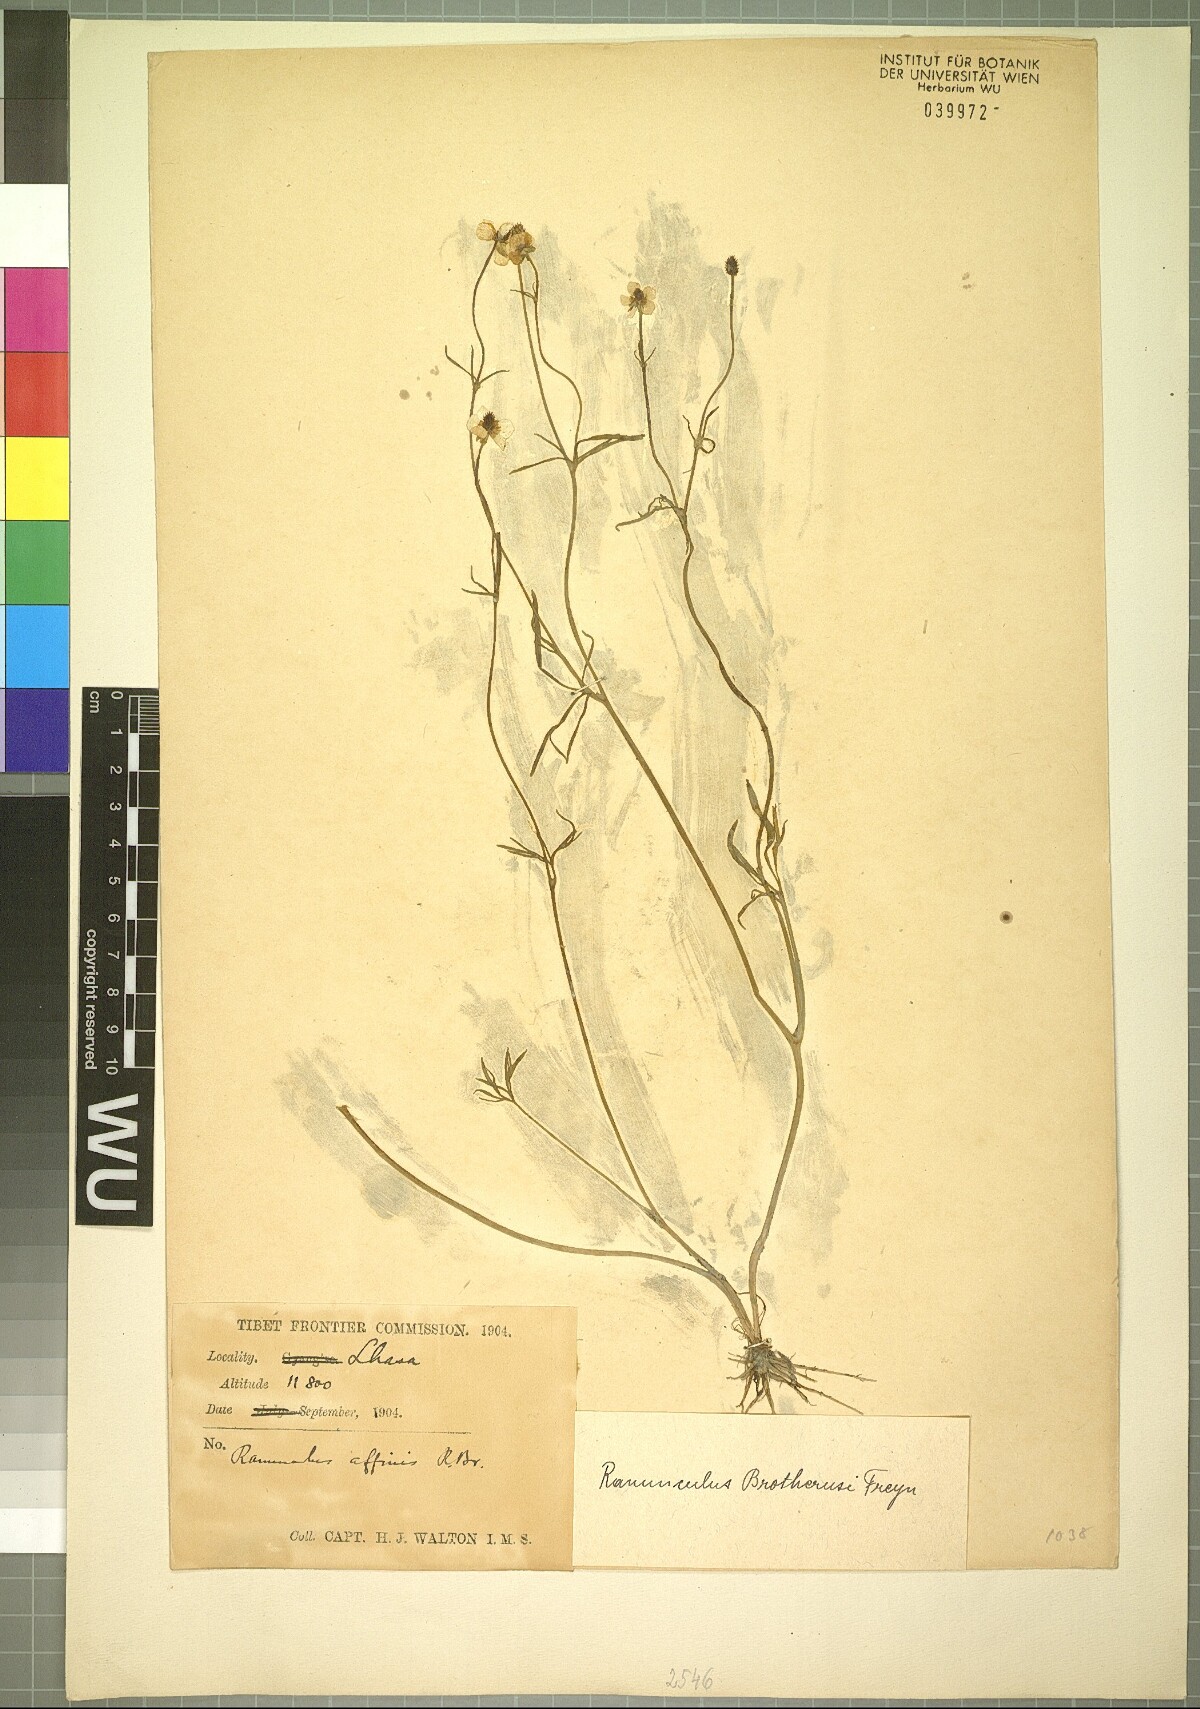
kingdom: Plantae
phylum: Tracheophyta
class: Magnoliopsida
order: Ranunculales
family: Ranunculaceae
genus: Ranunculus
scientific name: Ranunculus brotherusii
